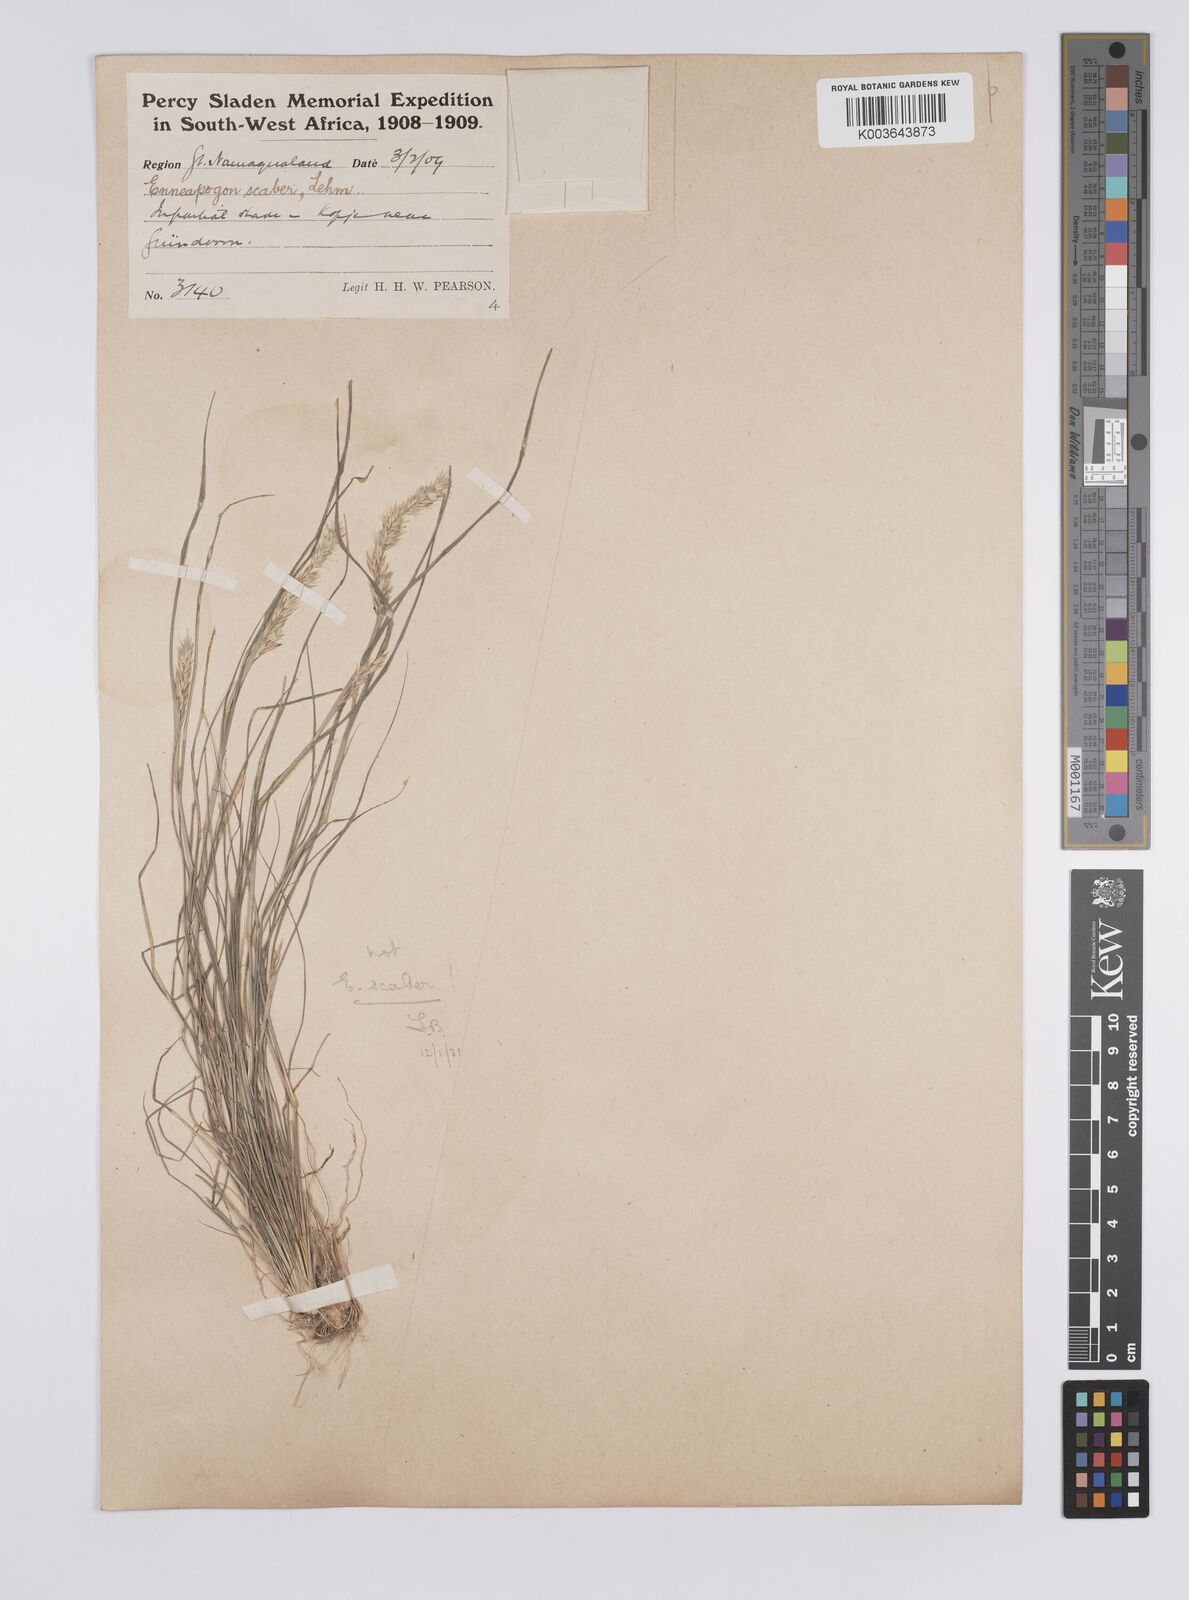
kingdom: Plantae
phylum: Tracheophyta
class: Liliopsida
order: Poales
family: Poaceae
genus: Enneapogon
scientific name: Enneapogon desvauxii
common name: Feather pappus grass
